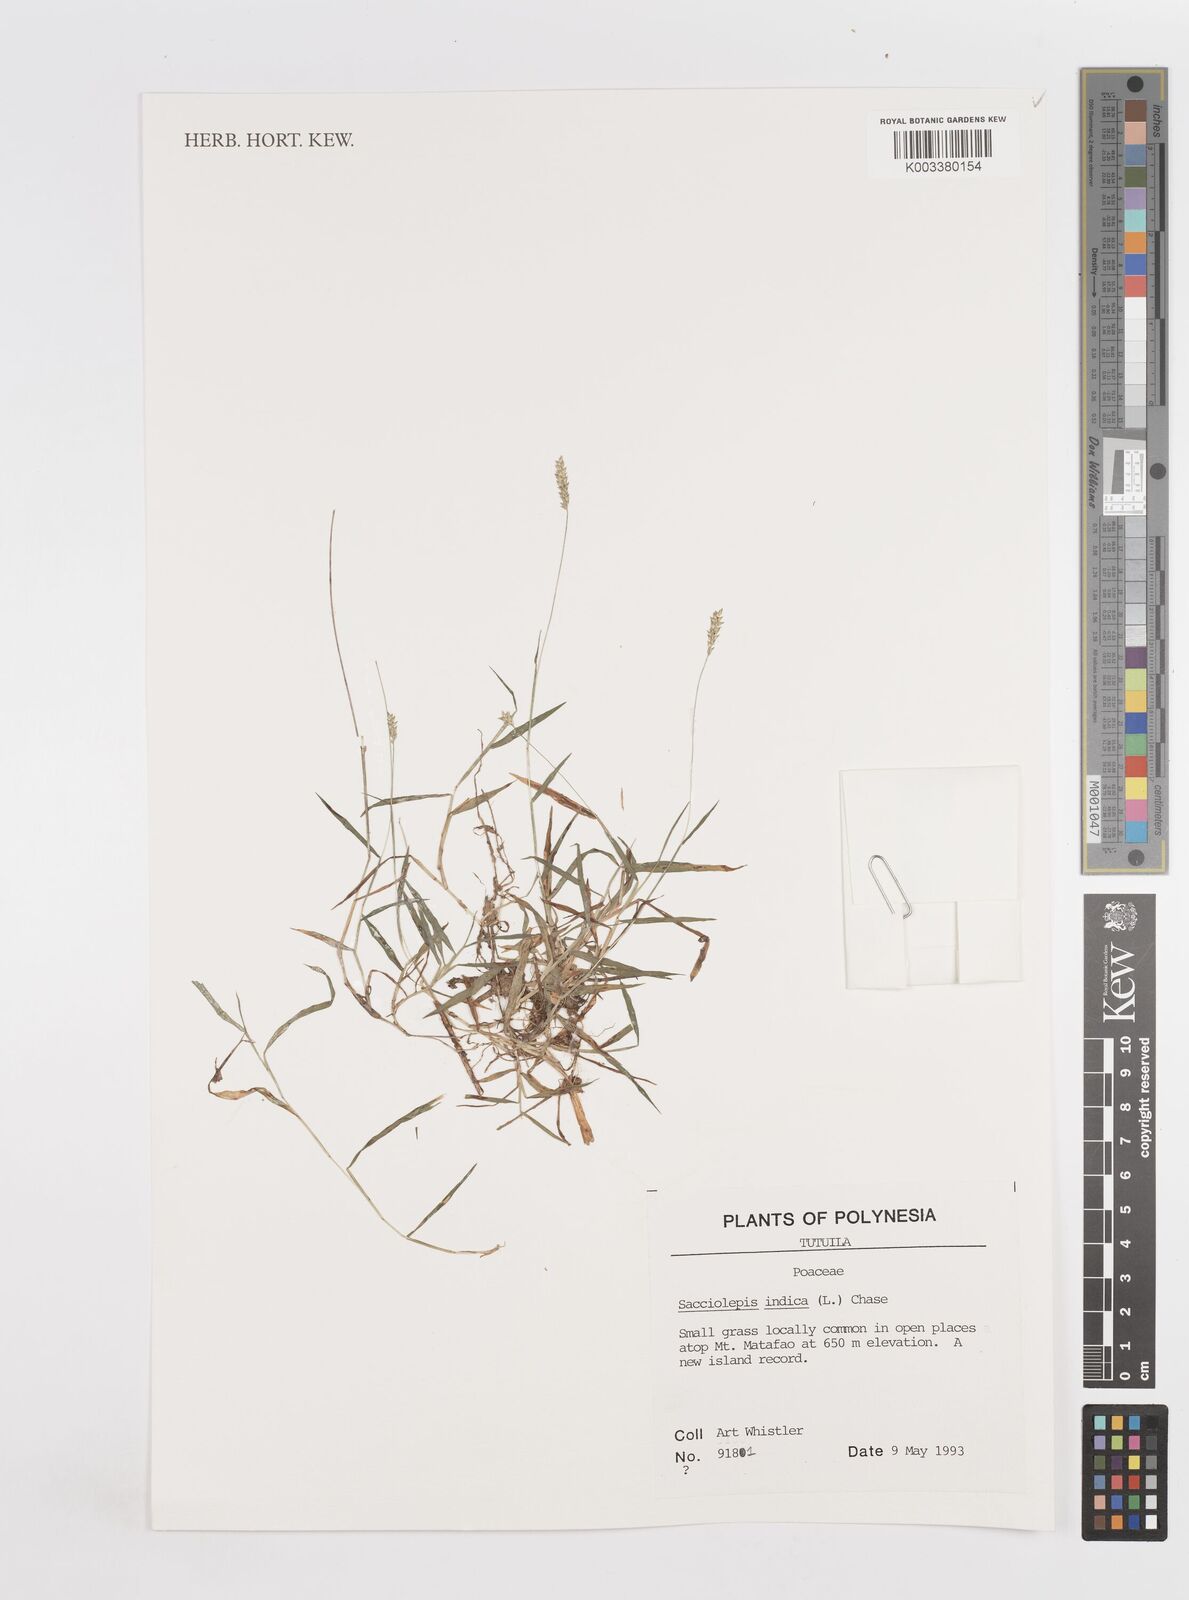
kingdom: Plantae
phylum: Tracheophyta
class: Liliopsida
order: Poales
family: Poaceae
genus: Sacciolepis
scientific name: Sacciolepis indica
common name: Glenwoodgrass
